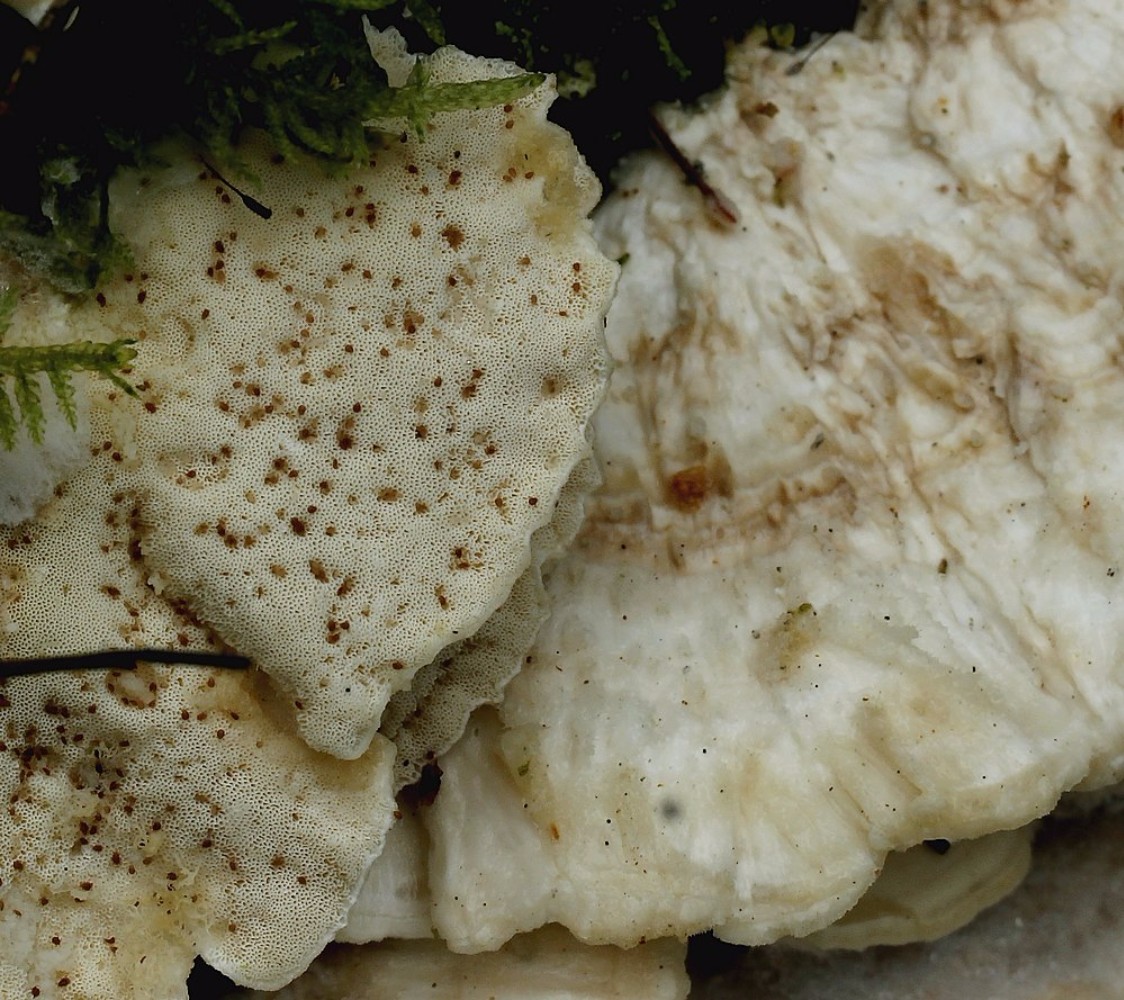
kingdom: Fungi
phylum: Basidiomycota
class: Agaricomycetes
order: Polyporales
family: Polyporaceae
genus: Trametes
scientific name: Trametes pubescens
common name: dunet læderporesvamp
